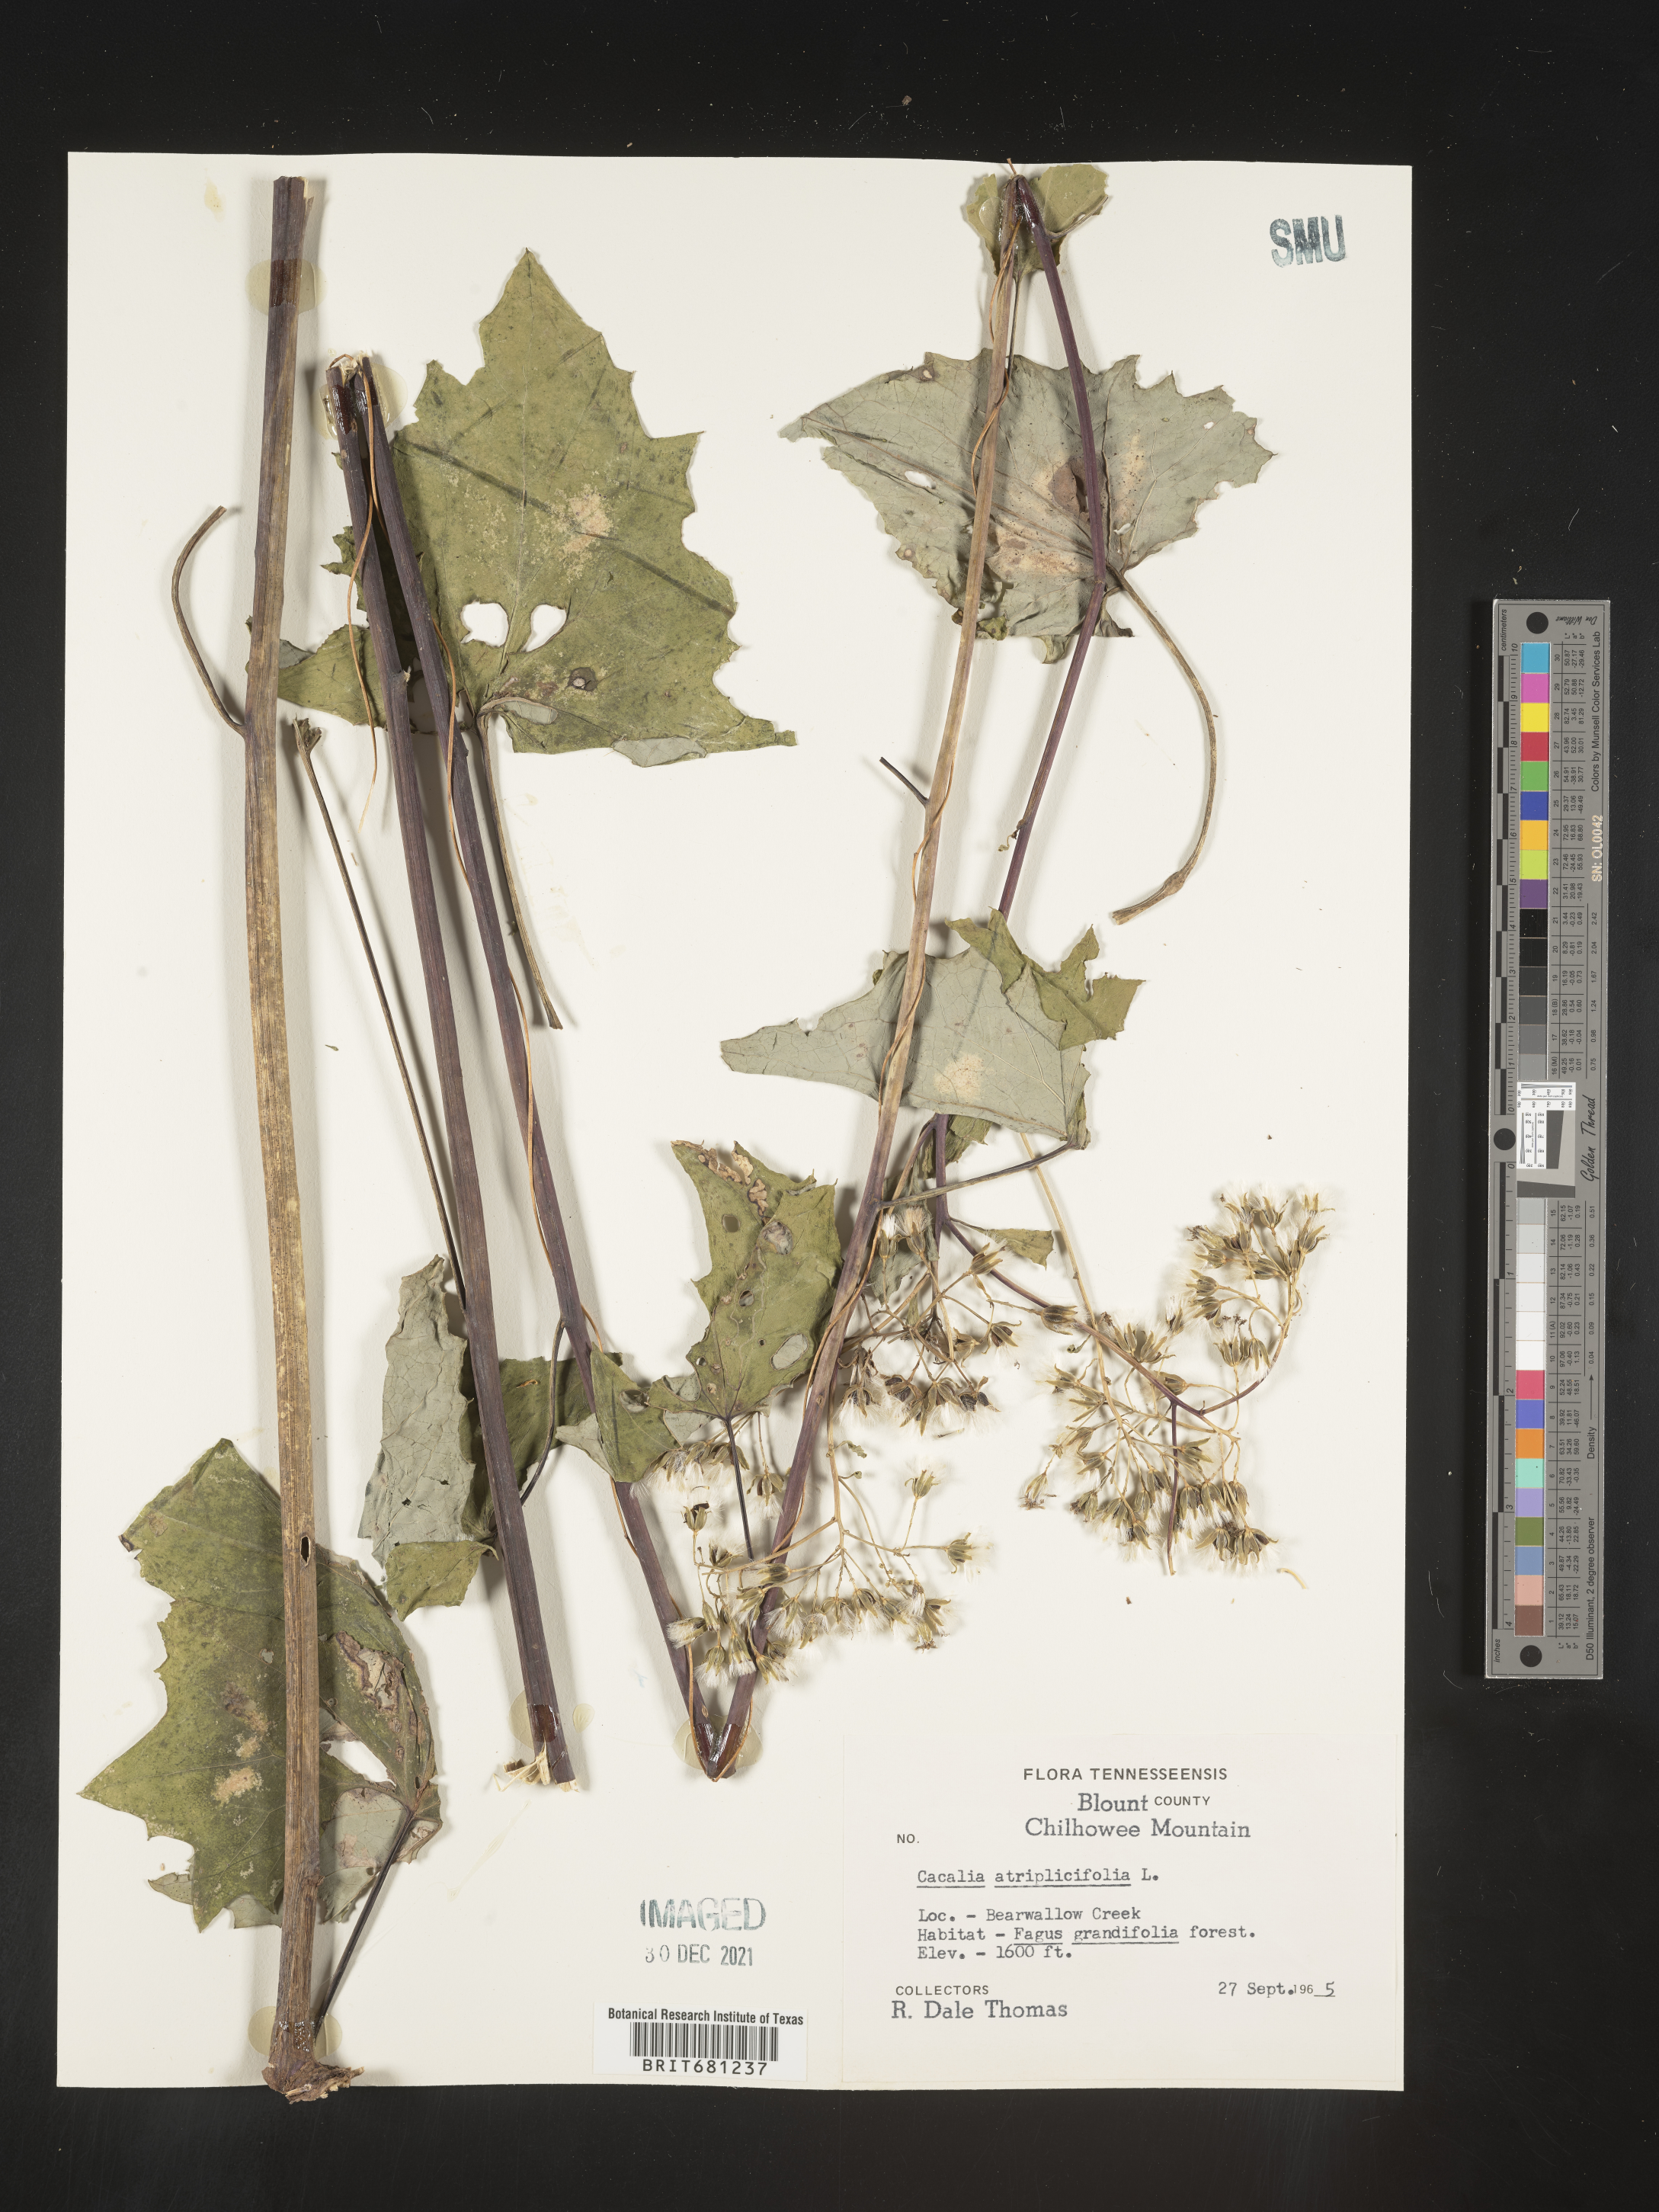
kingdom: Plantae
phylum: Tracheophyta
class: Magnoliopsida
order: Asterales
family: Asteraceae
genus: Arnoglossum
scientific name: Arnoglossum atriplicifolium
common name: Pale indian-plantain
